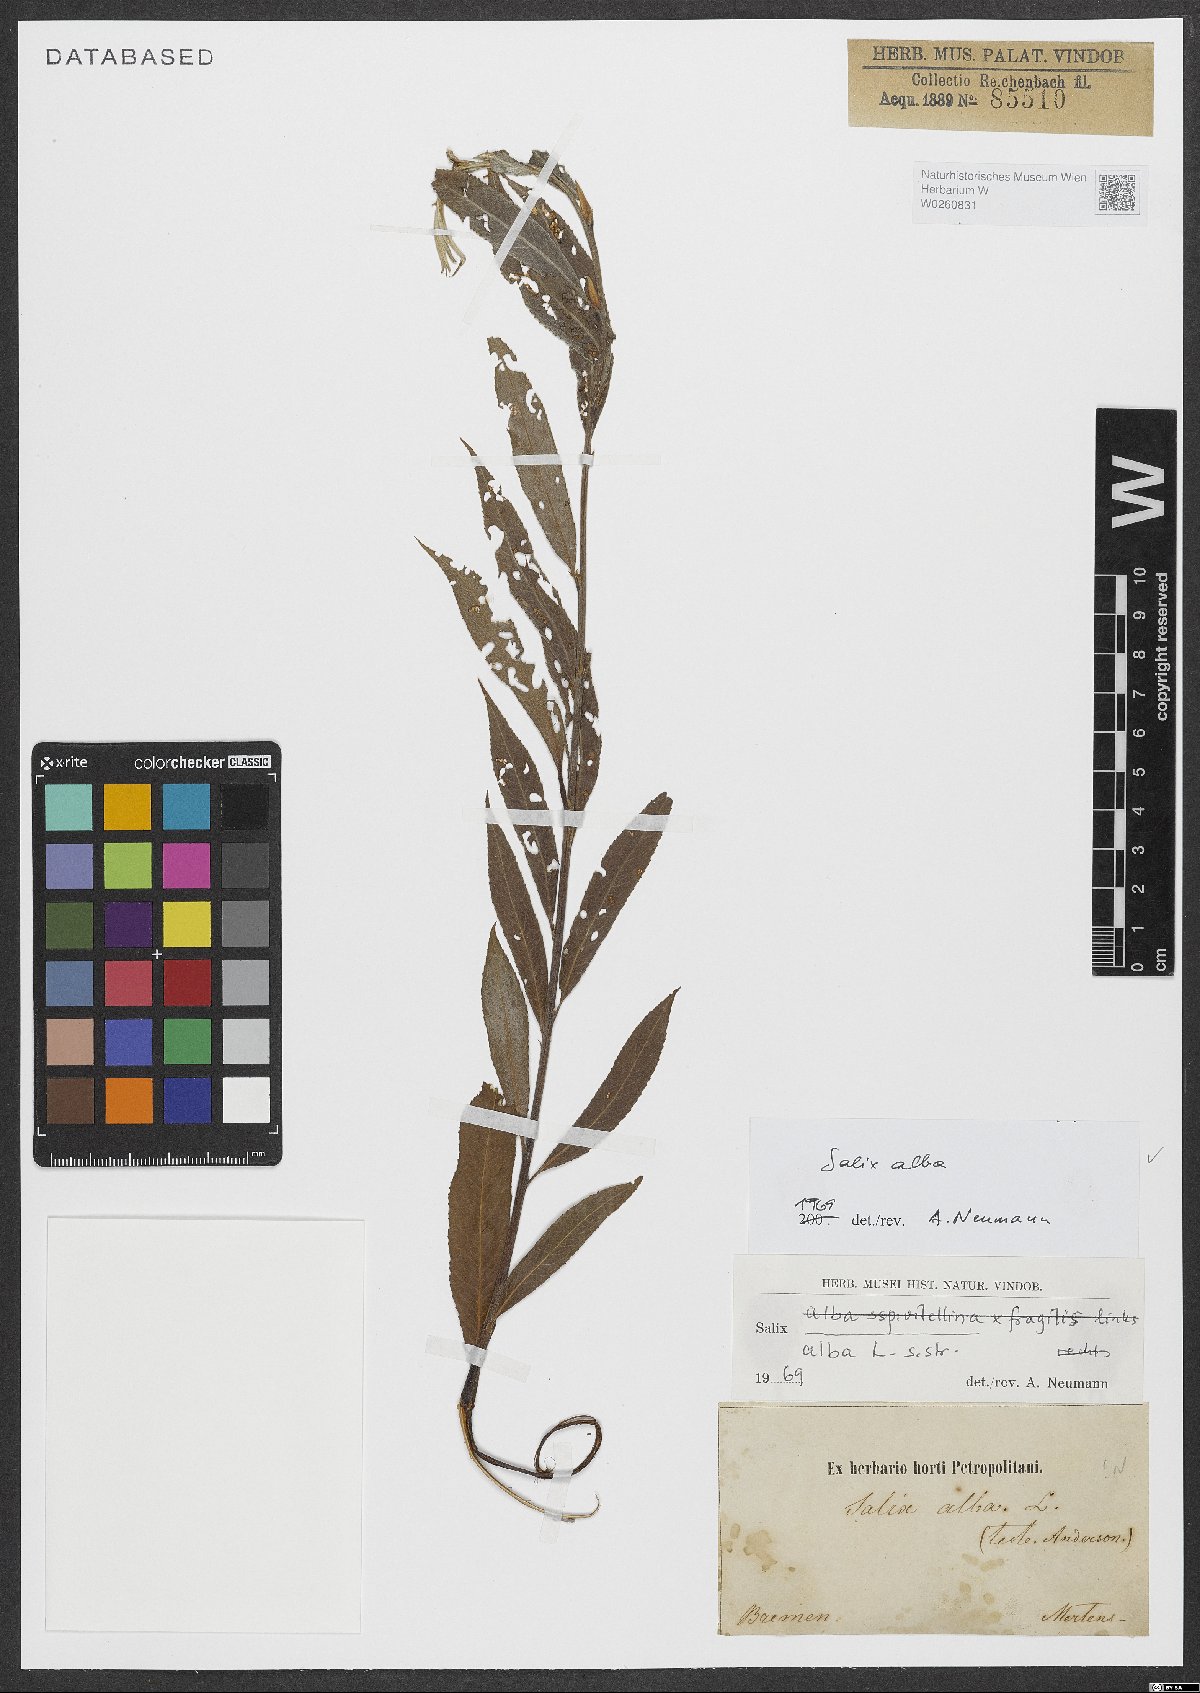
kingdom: Plantae
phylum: Tracheophyta
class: Magnoliopsida
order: Malpighiales
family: Salicaceae
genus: Salix
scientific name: Salix alba
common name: White willow
